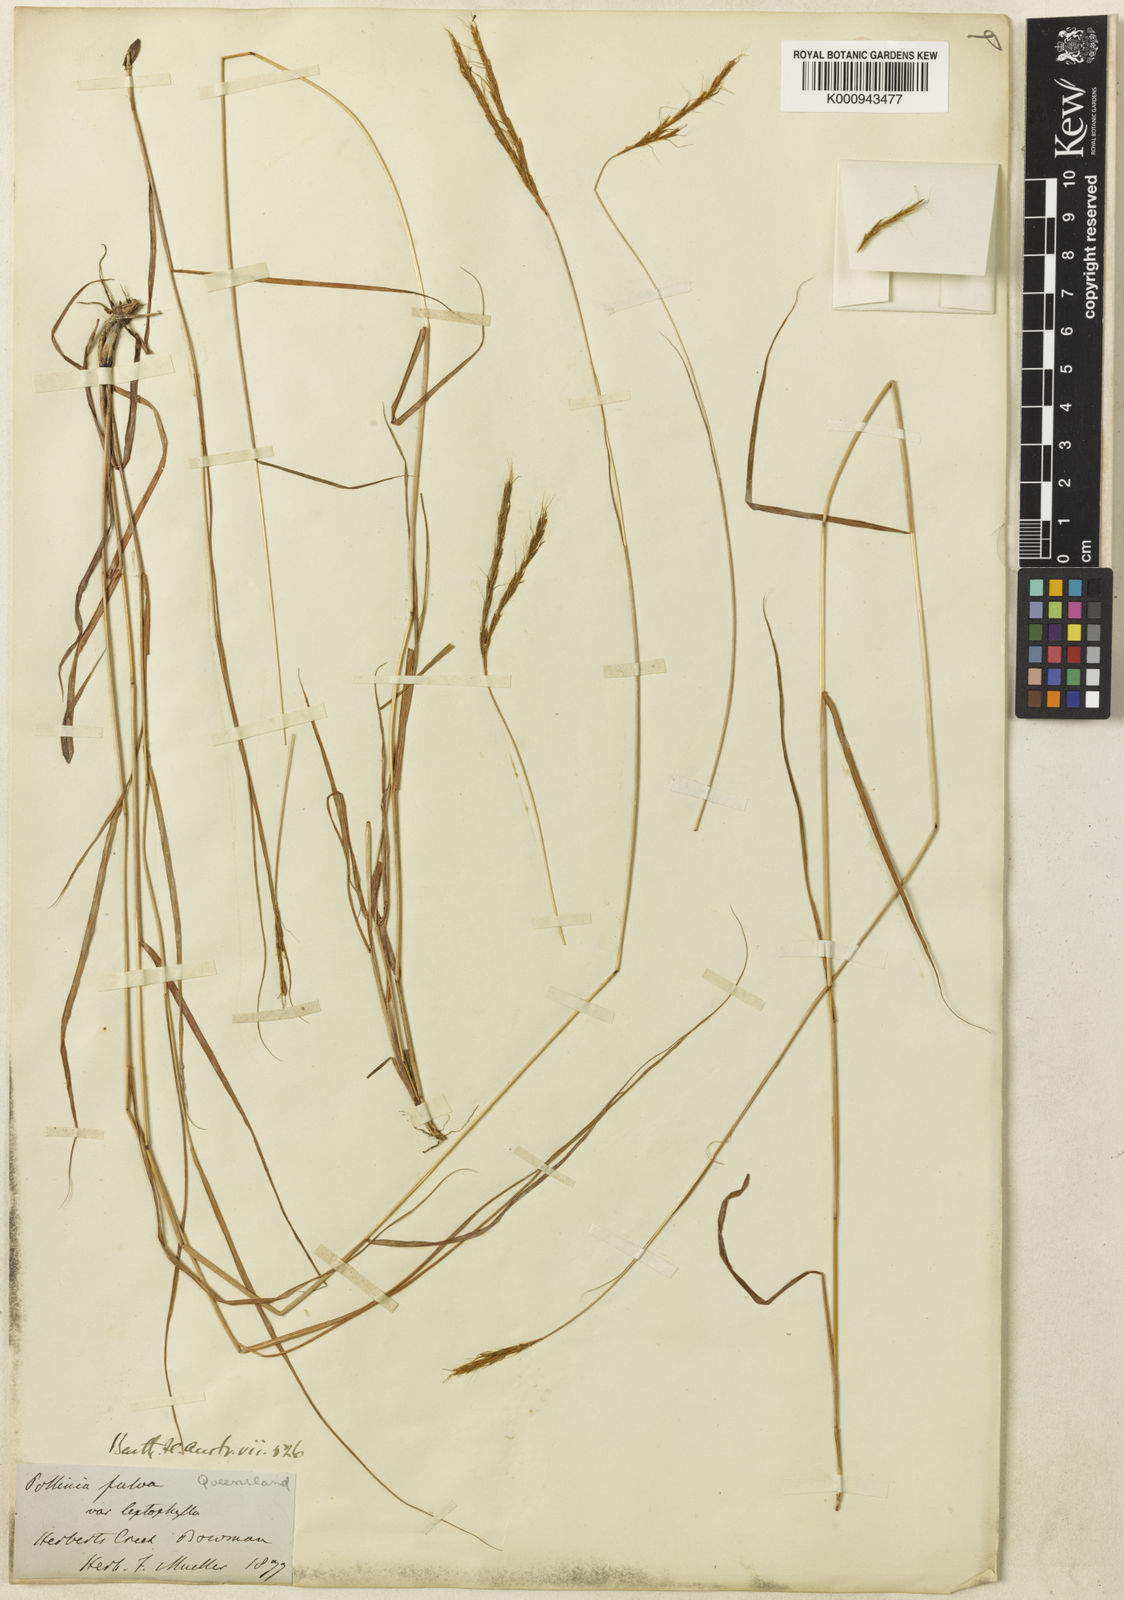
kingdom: Plantae
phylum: Tracheophyta
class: Liliopsida
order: Poales
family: Poaceae
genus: Eulalia
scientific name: Eulalia aurea
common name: Silky browntop
